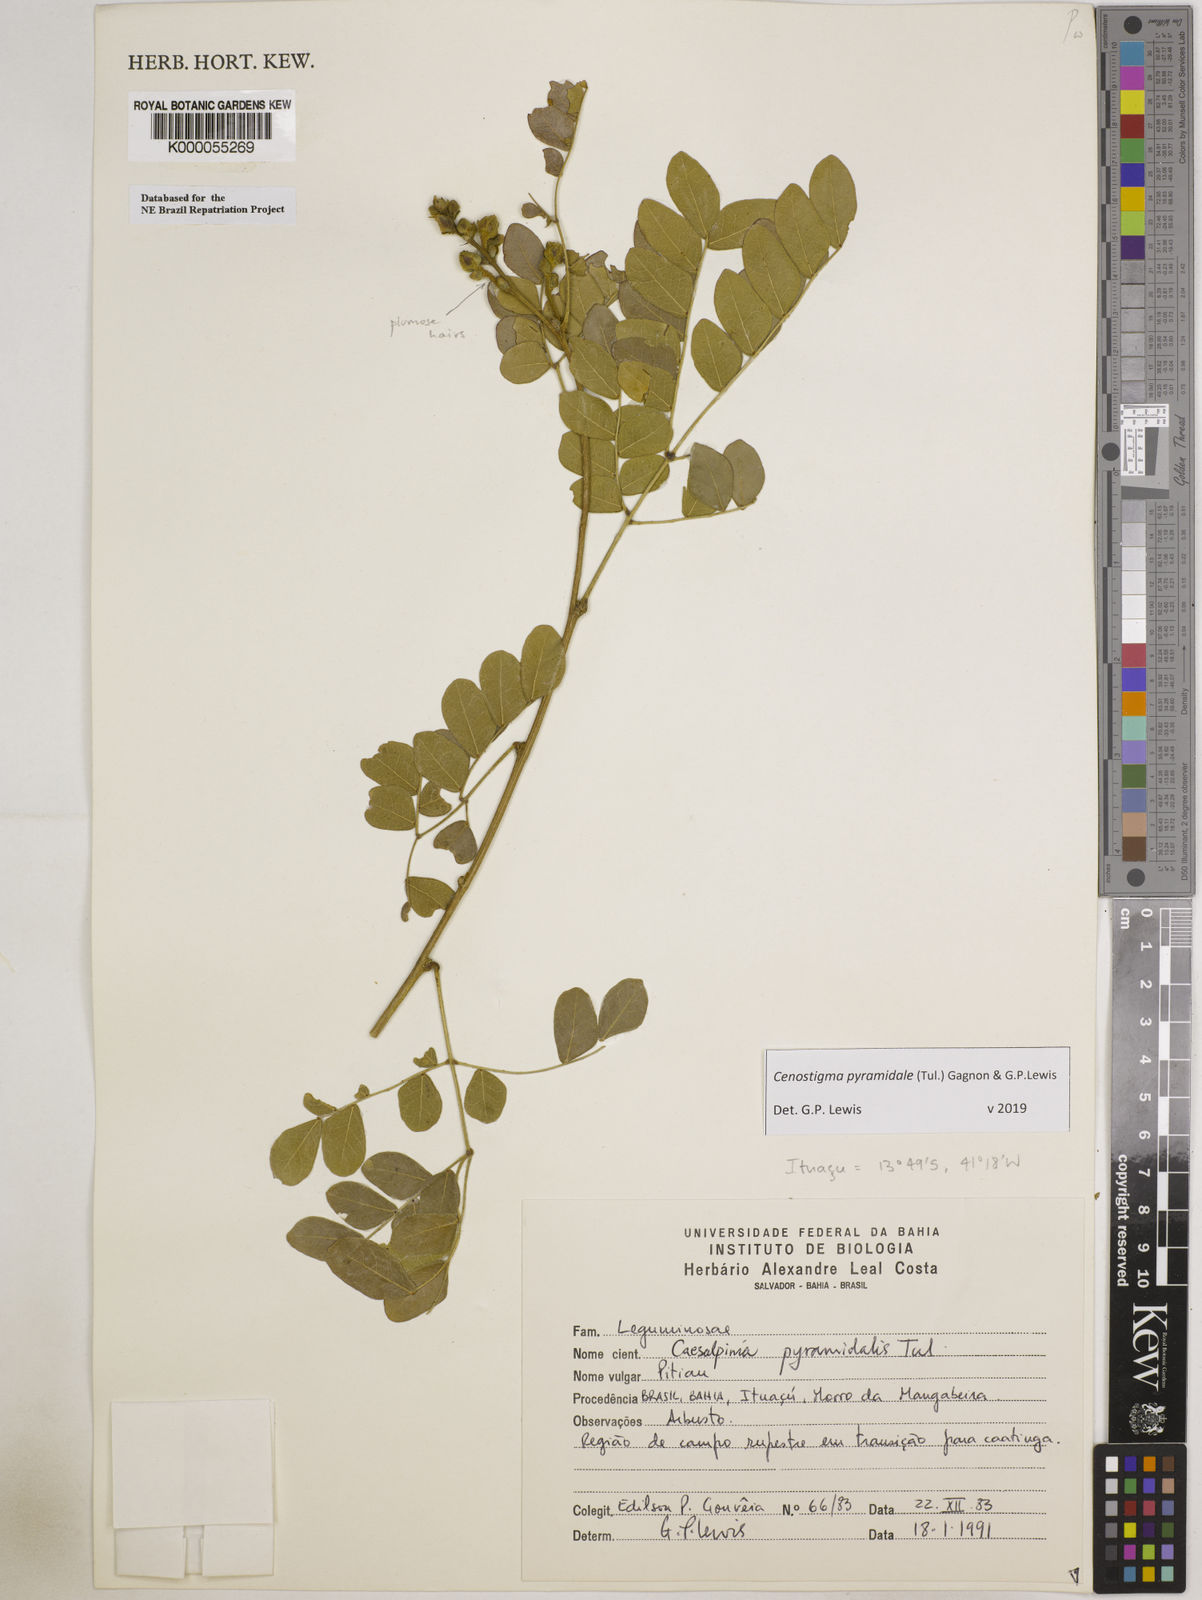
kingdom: Plantae
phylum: Tracheophyta
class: Magnoliopsida
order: Fabales
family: Fabaceae
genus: Cenostigma
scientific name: Cenostigma pyramidale
